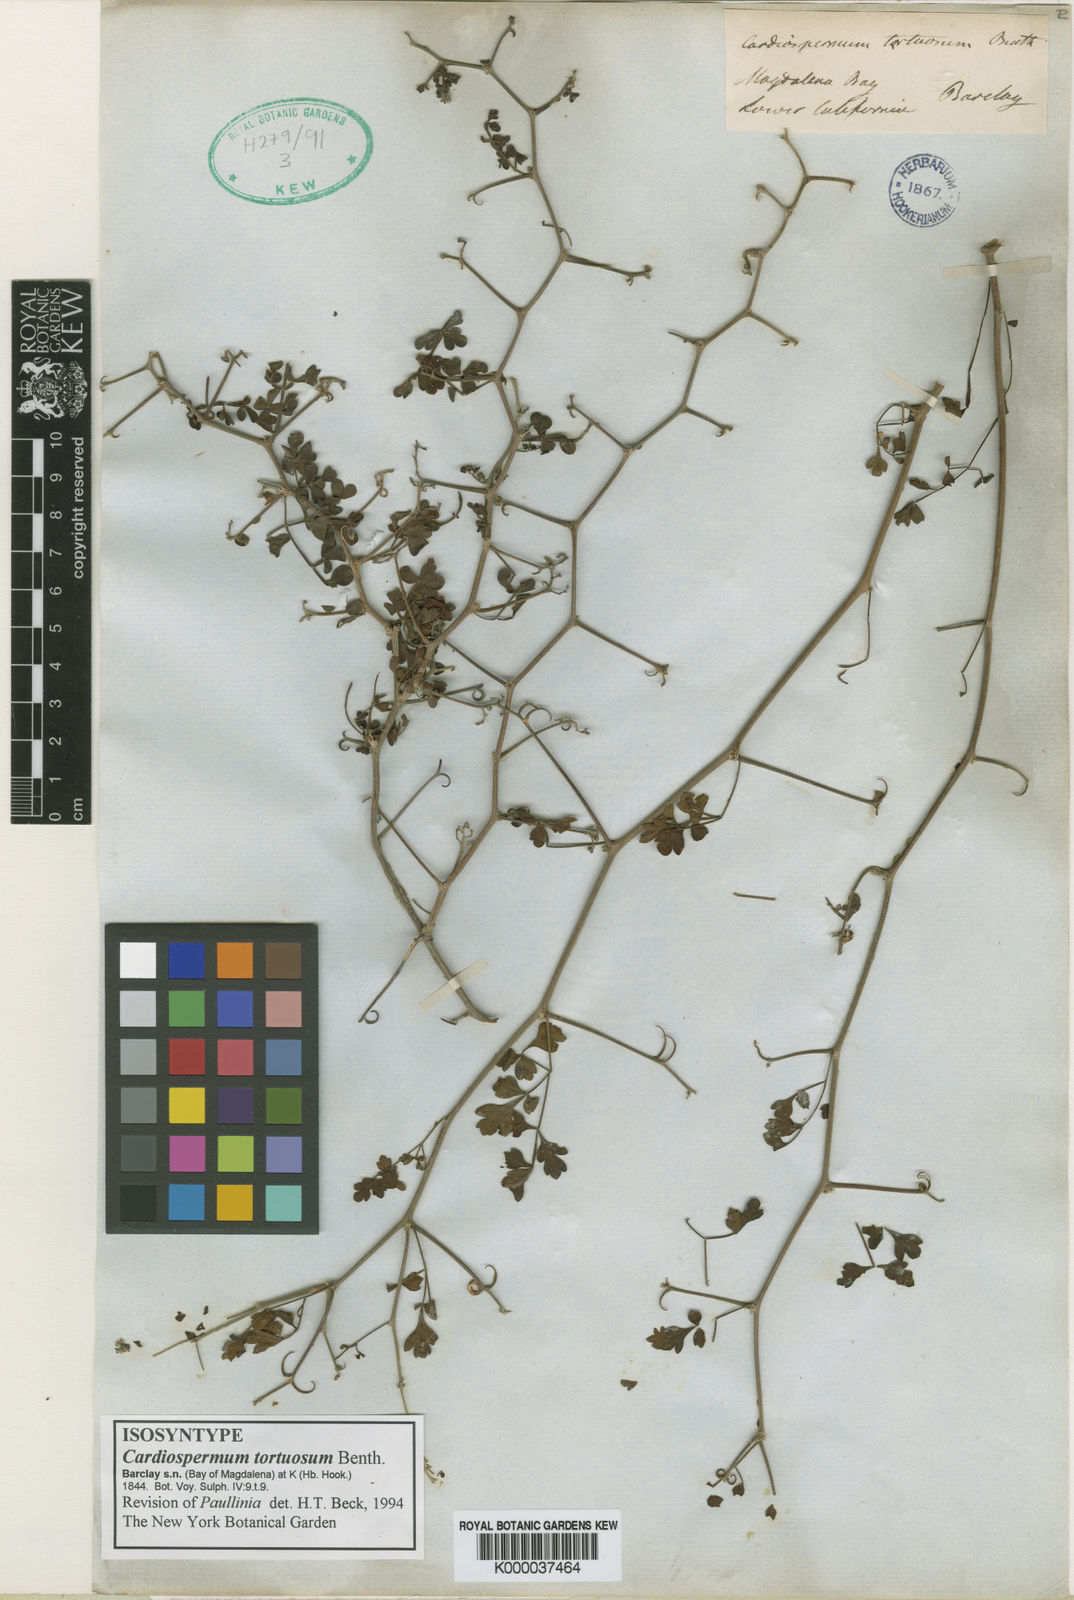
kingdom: Plantae
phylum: Tracheophyta
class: Magnoliopsida
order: Sapindales
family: Sapindaceae
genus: Serjania
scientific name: Serjania tortuosa
